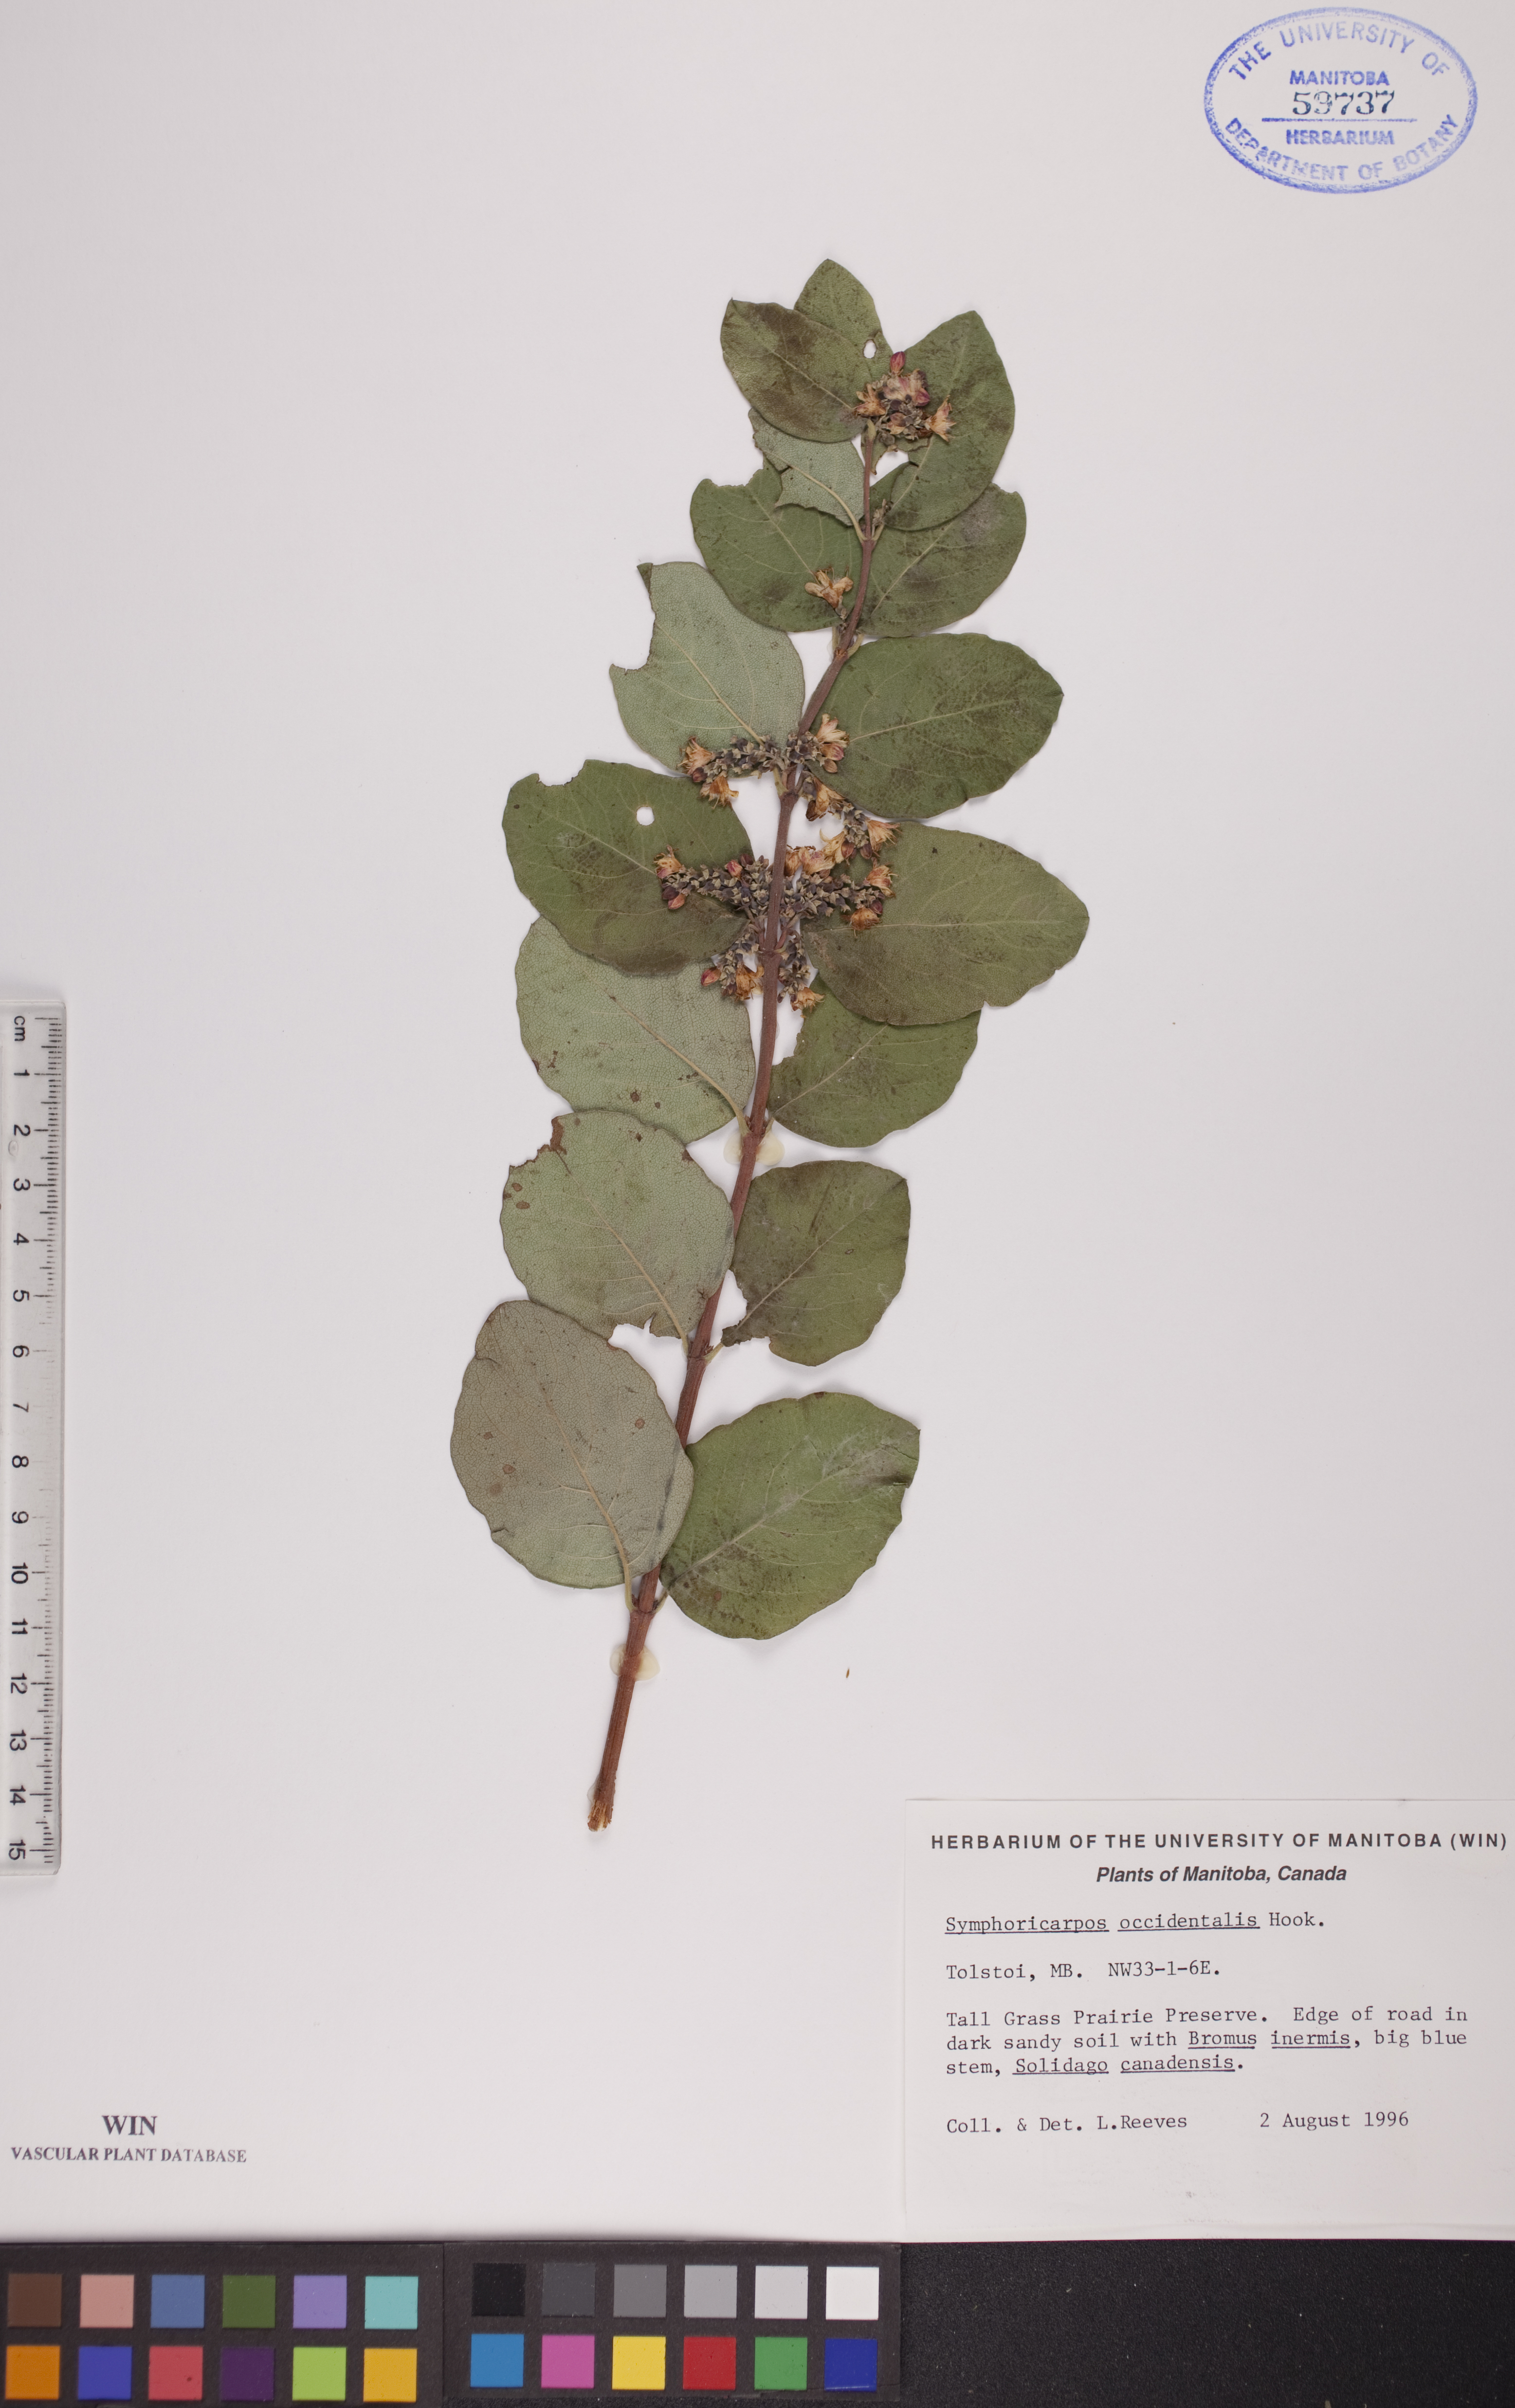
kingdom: Plantae
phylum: Tracheophyta
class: Magnoliopsida
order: Dipsacales
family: Caprifoliaceae
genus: Symphoricarpos
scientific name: Symphoricarpos occidentalis
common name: Wolfberry
